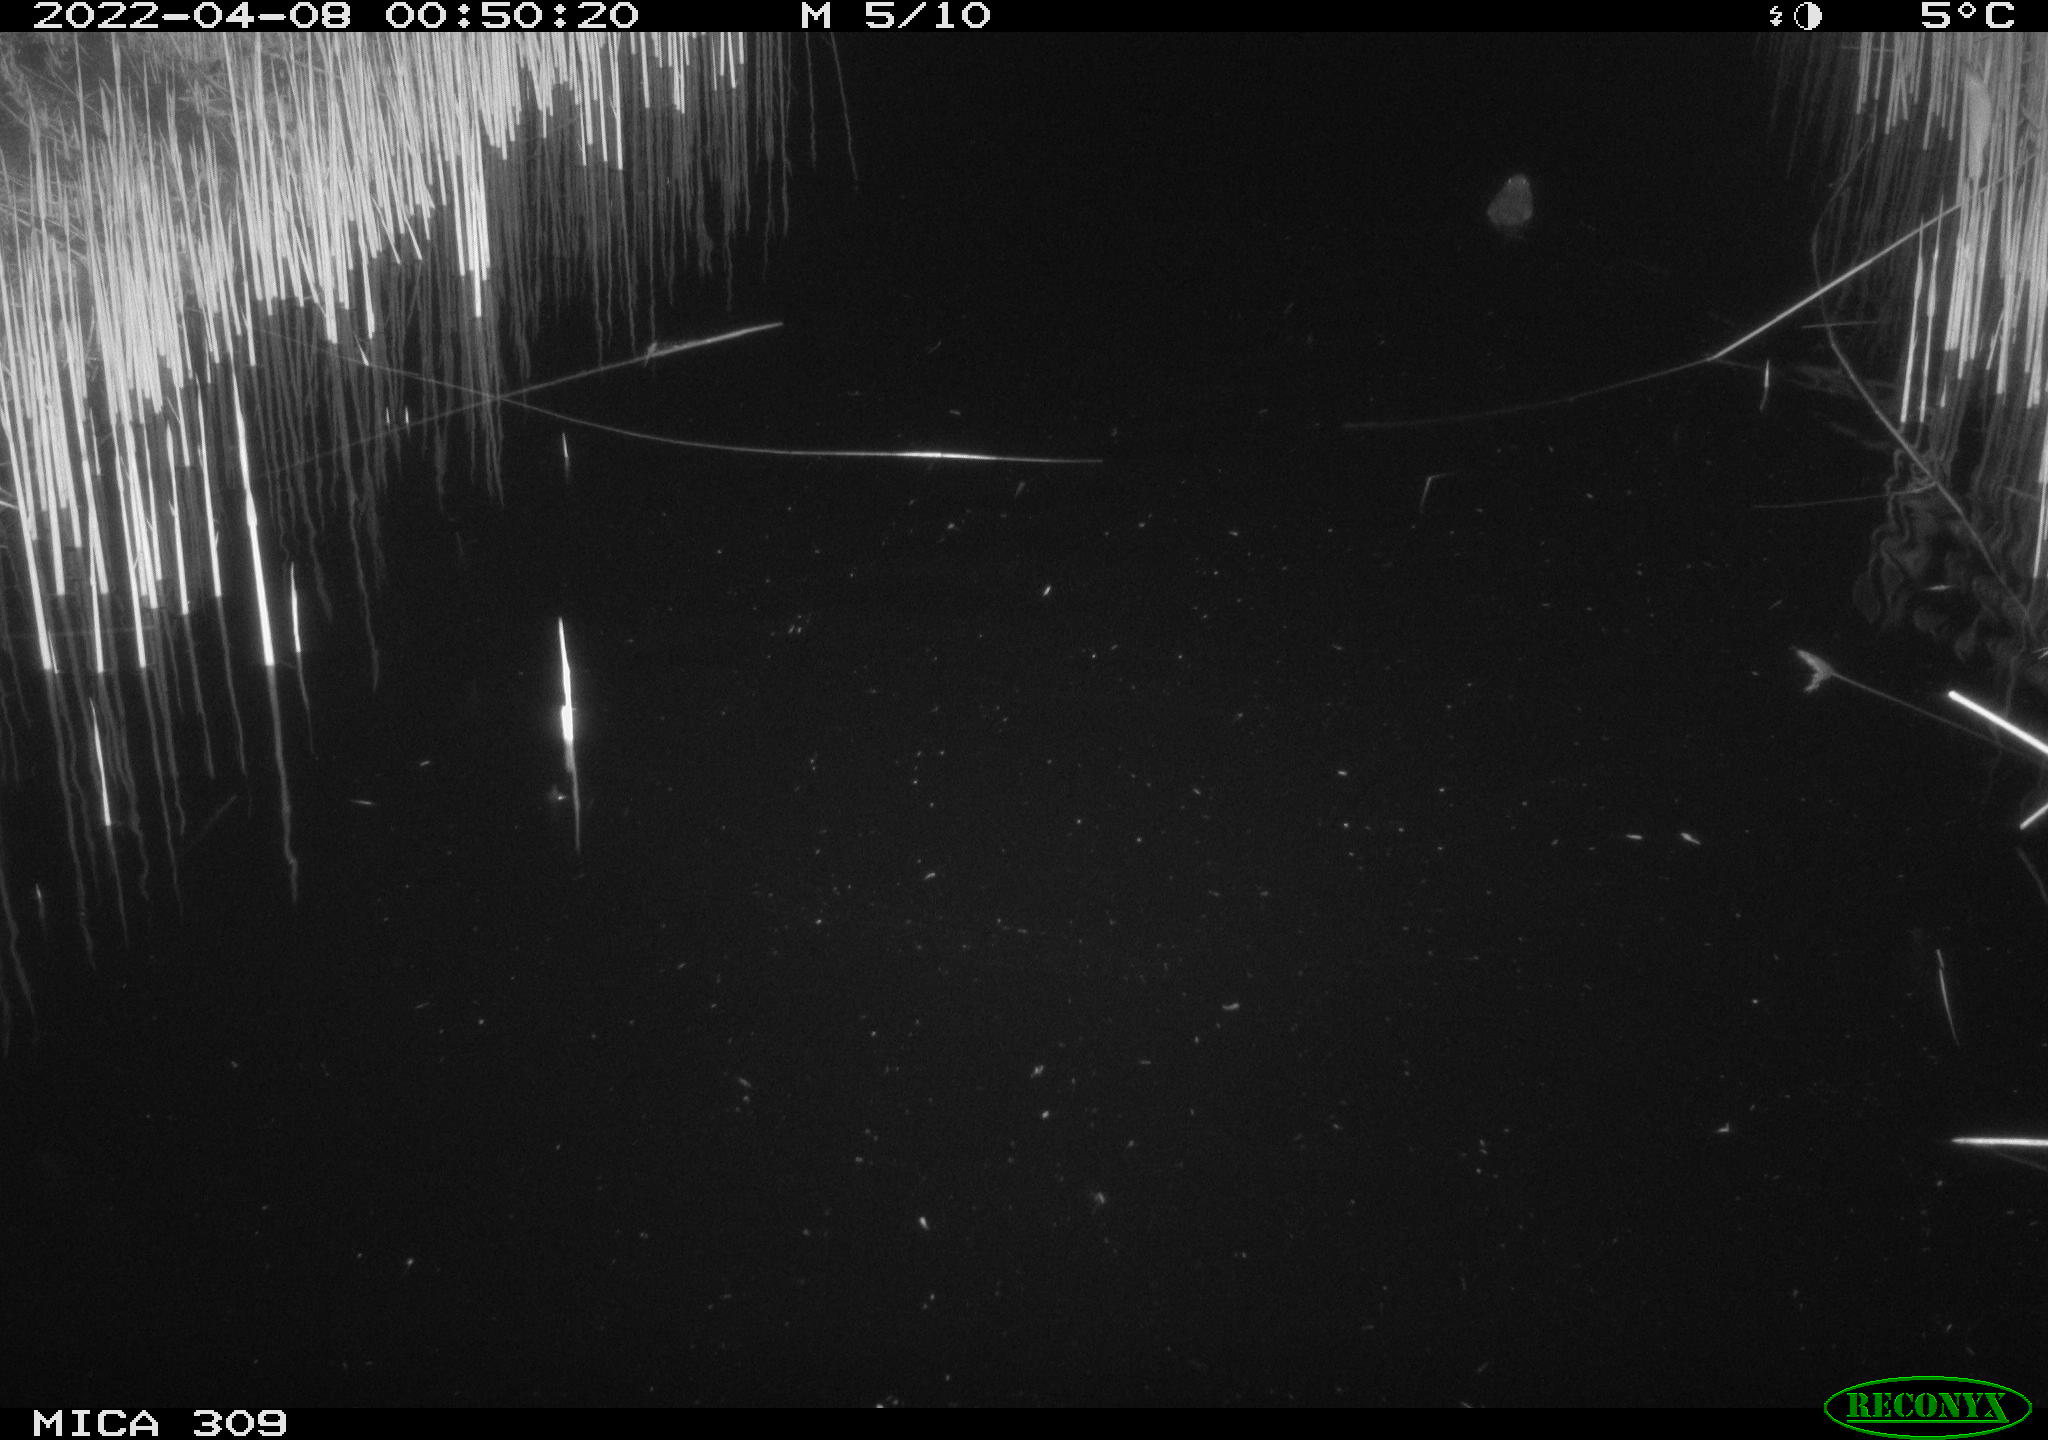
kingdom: Animalia
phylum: Chordata
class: Mammalia
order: Rodentia
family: Muridae
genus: Rattus
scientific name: Rattus norvegicus
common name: Brown rat
